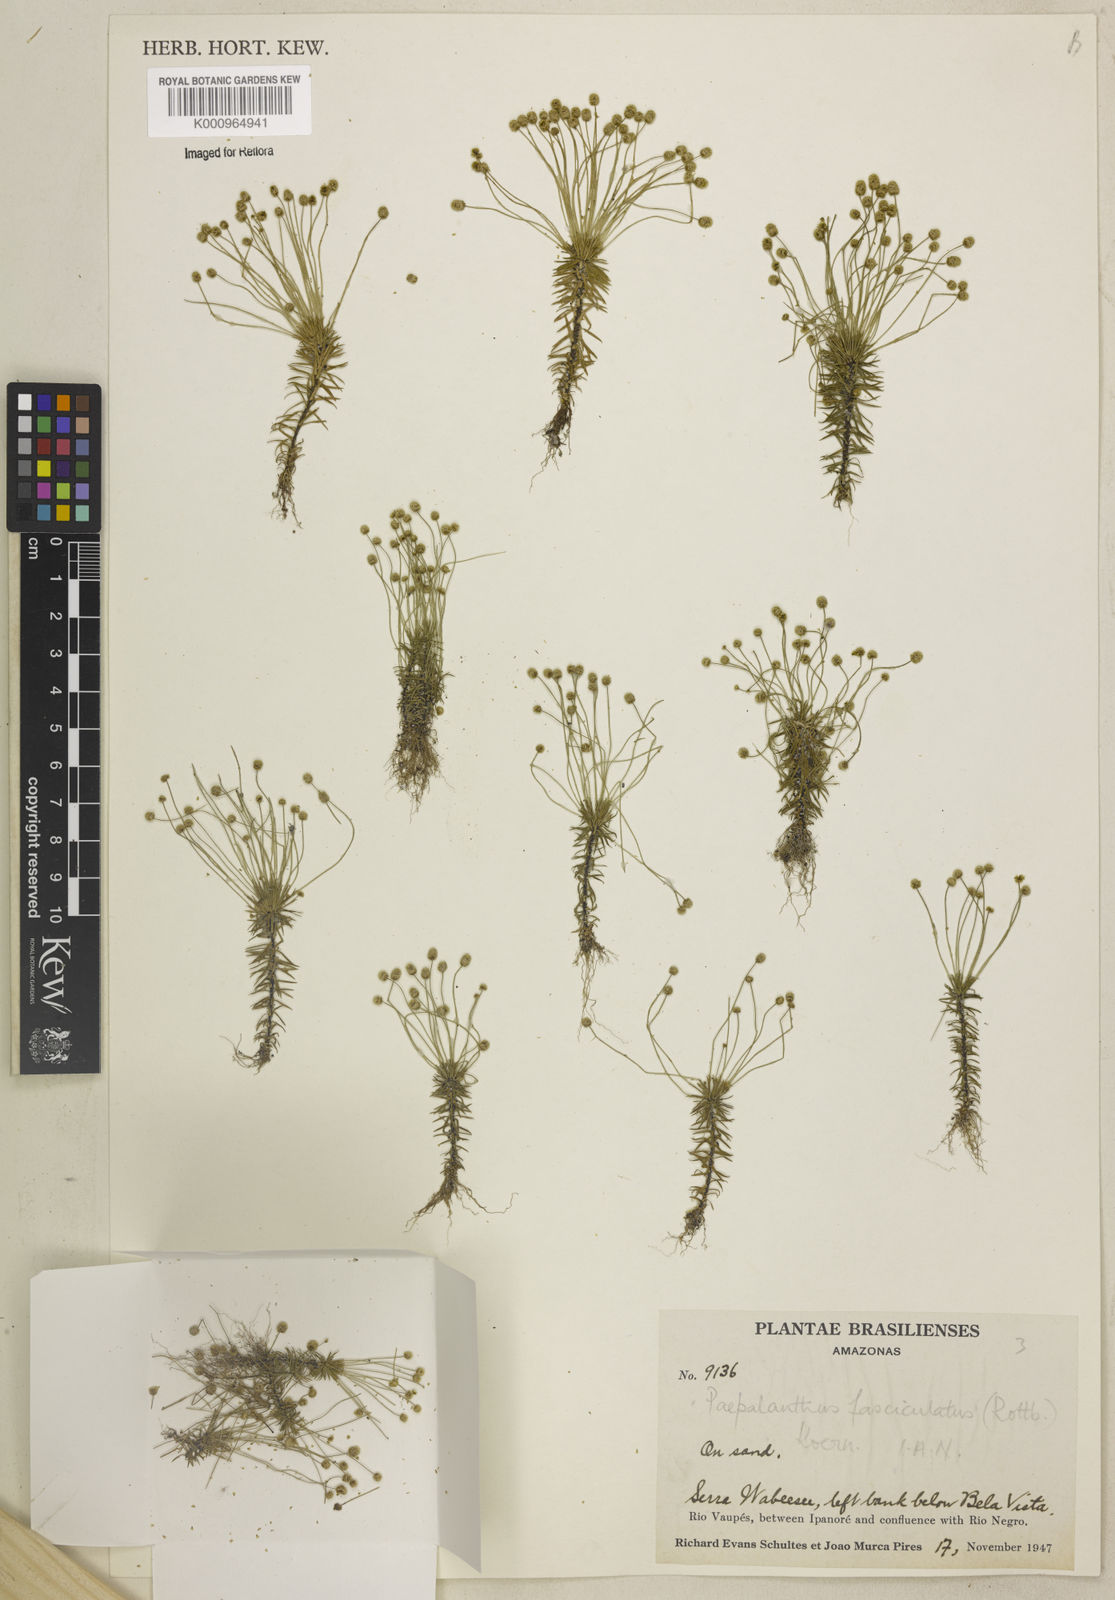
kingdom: Plantae
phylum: Tracheophyta
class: Liliopsida
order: Poales
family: Eriocaulaceae
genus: Paepalanthus
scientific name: Paepalanthus fasciculatus
